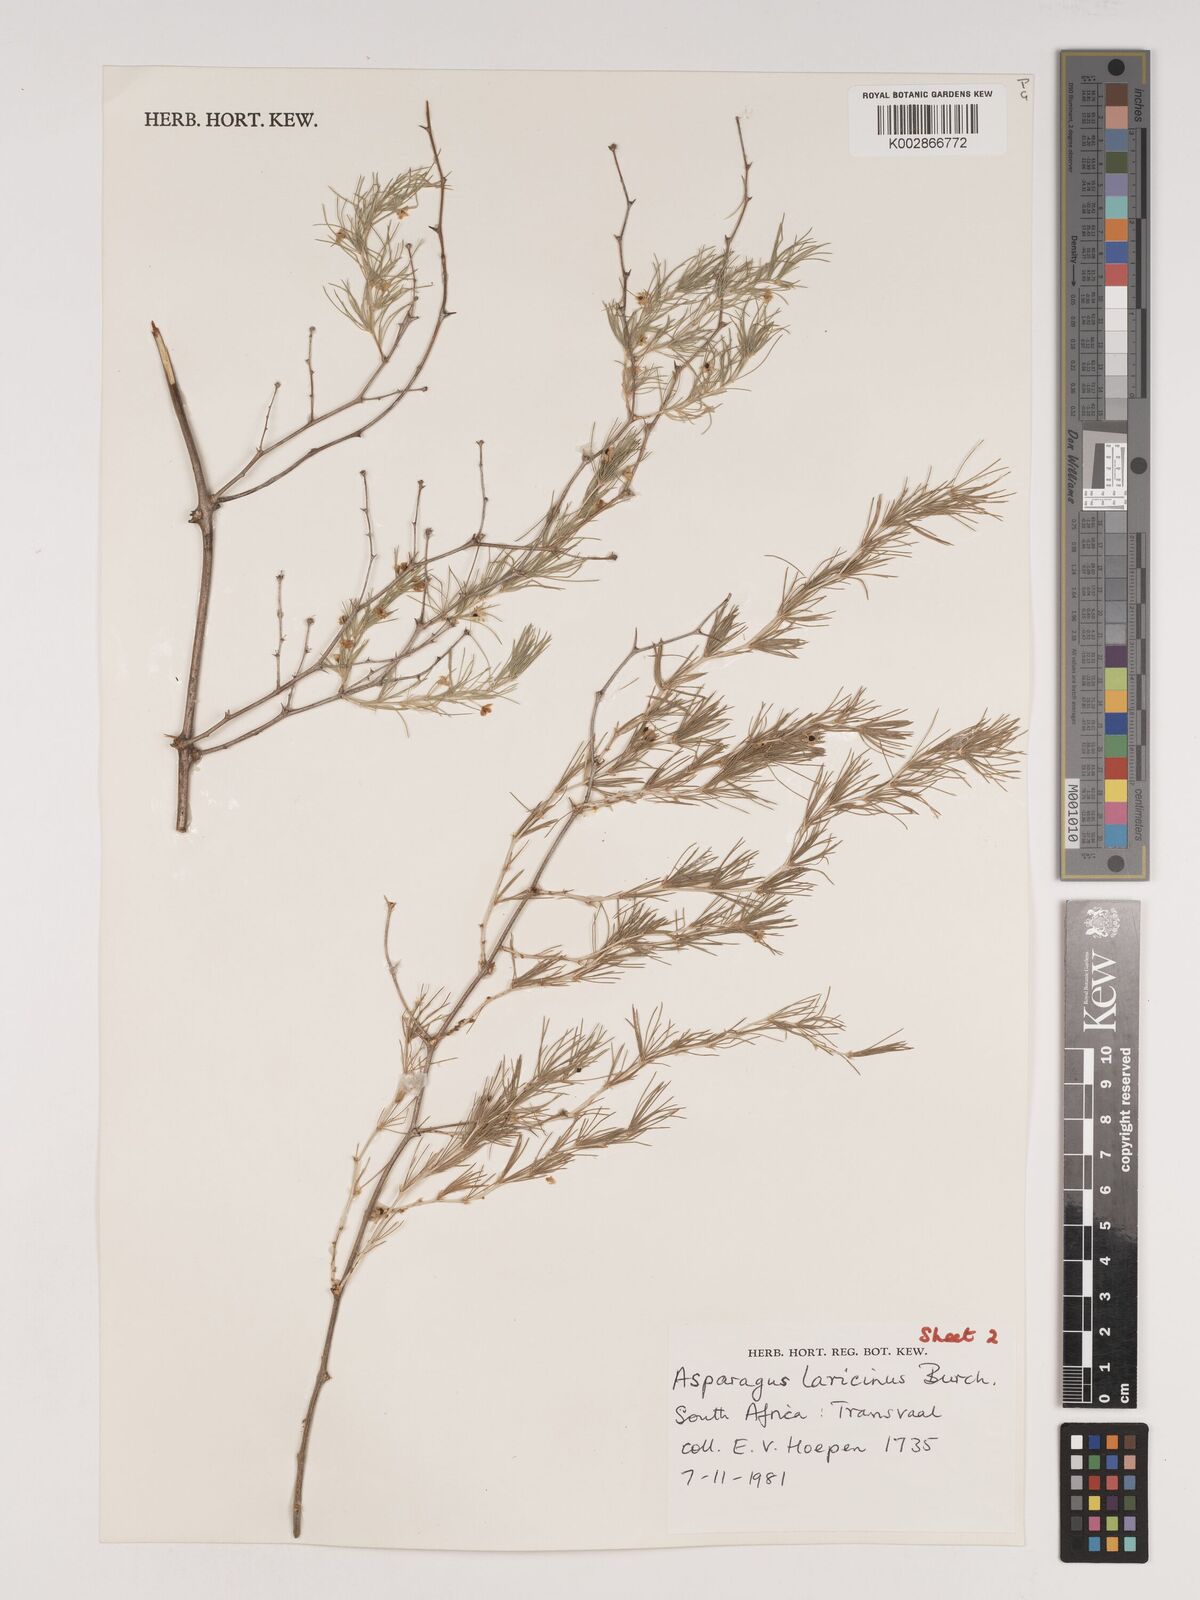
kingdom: Plantae
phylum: Tracheophyta
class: Liliopsida
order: Asparagales
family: Asparagaceae
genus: Asparagus
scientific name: Asparagus laricinus
